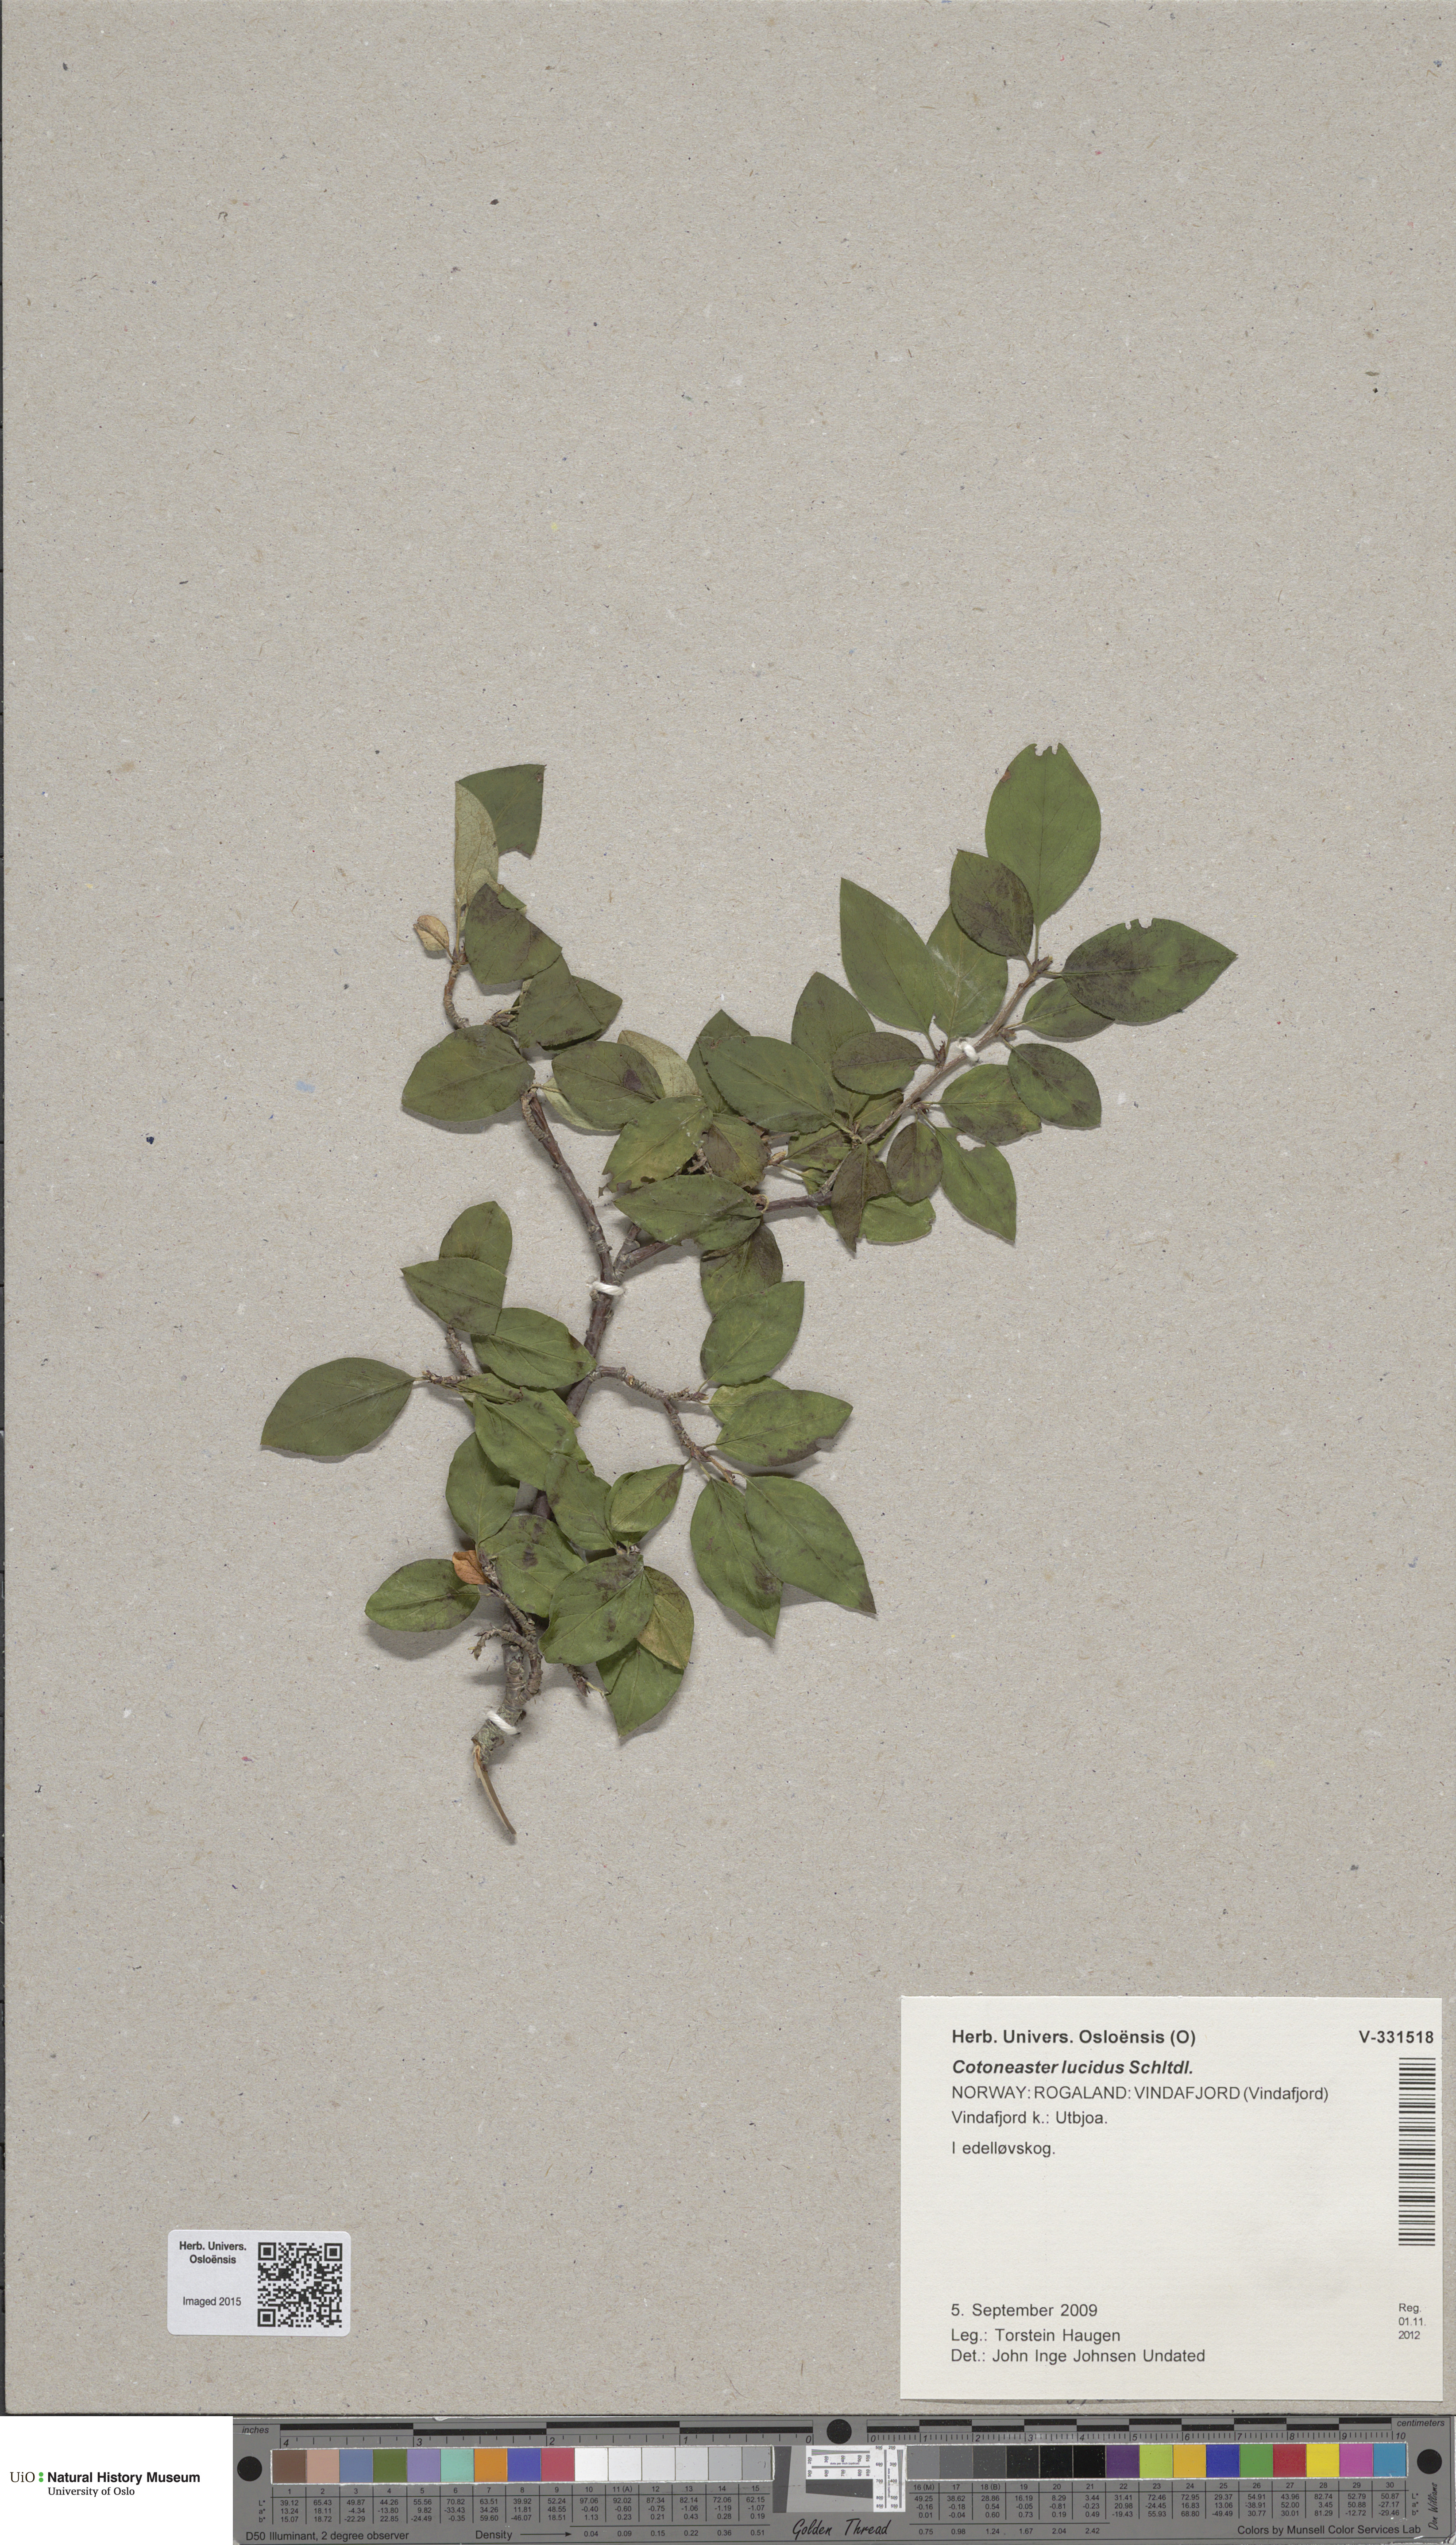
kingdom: Plantae
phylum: Tracheophyta
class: Magnoliopsida
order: Rosales
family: Rosaceae
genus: Cotoneaster
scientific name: Cotoneaster acutifolius
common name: Peking cotoneaster
